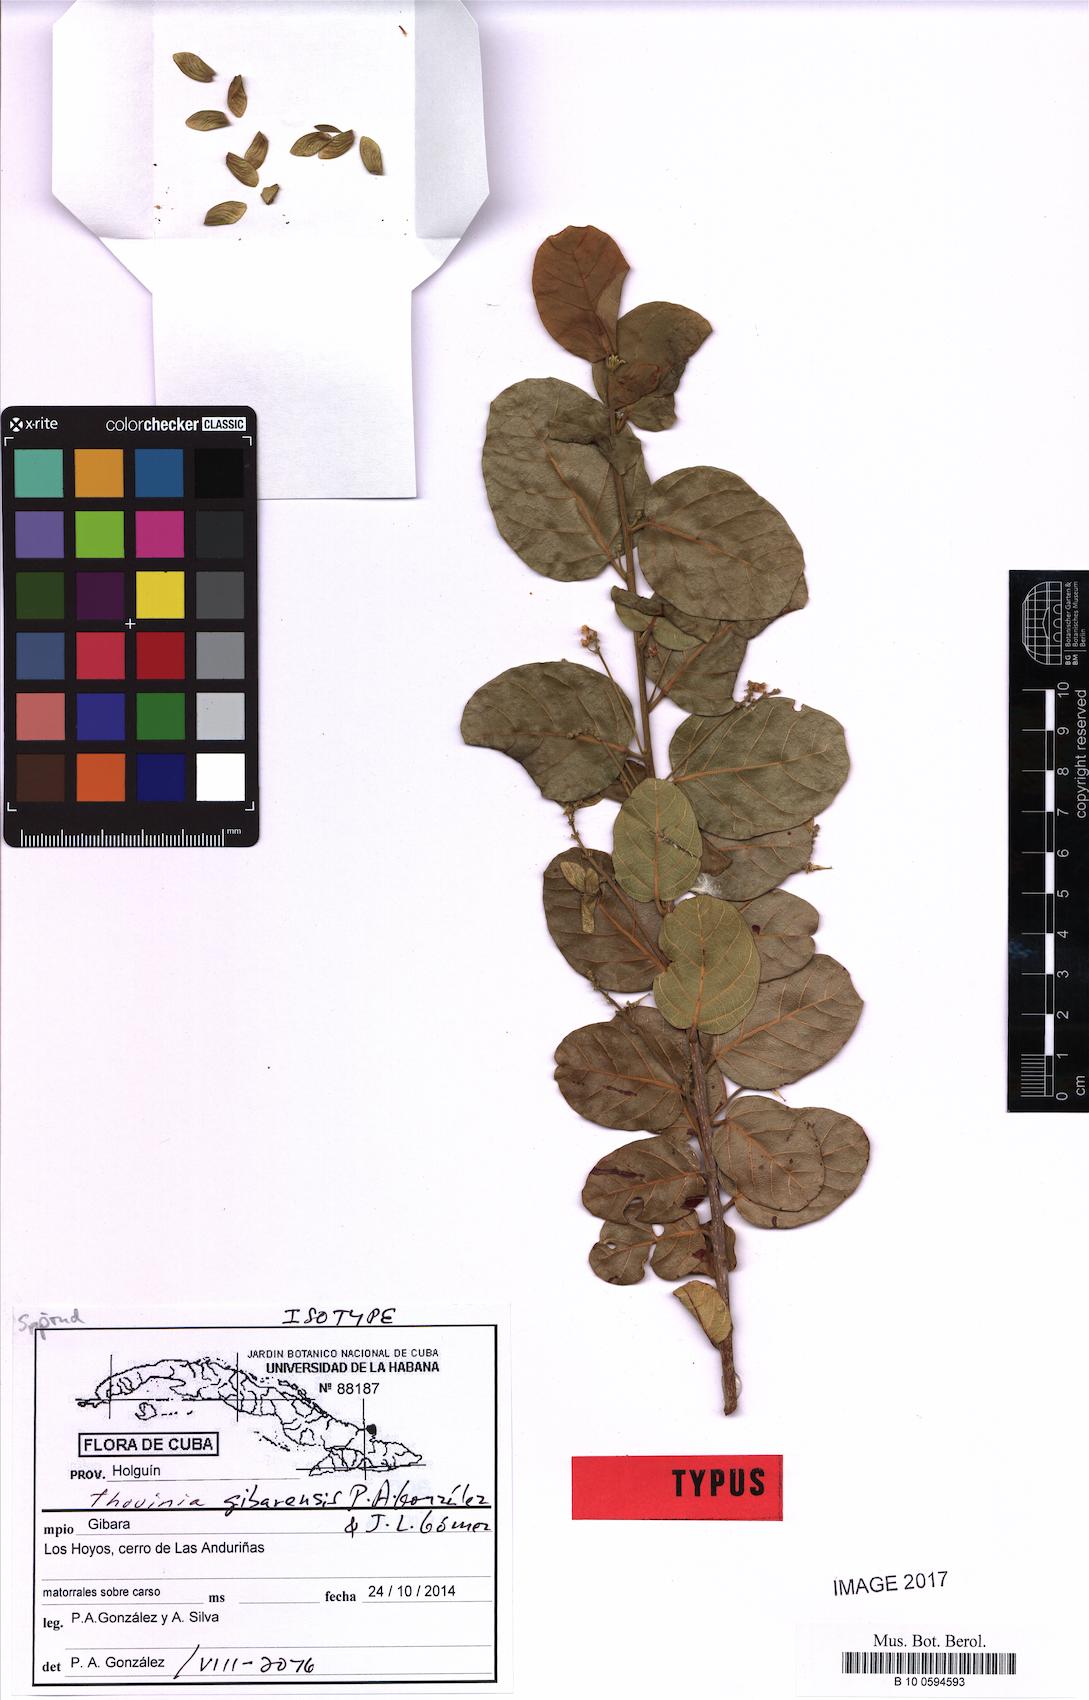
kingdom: Plantae
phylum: Tracheophyta
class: Magnoliopsida
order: Sapindales
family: Sapindaceae
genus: Thouinia
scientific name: Thouinia gibarensis
